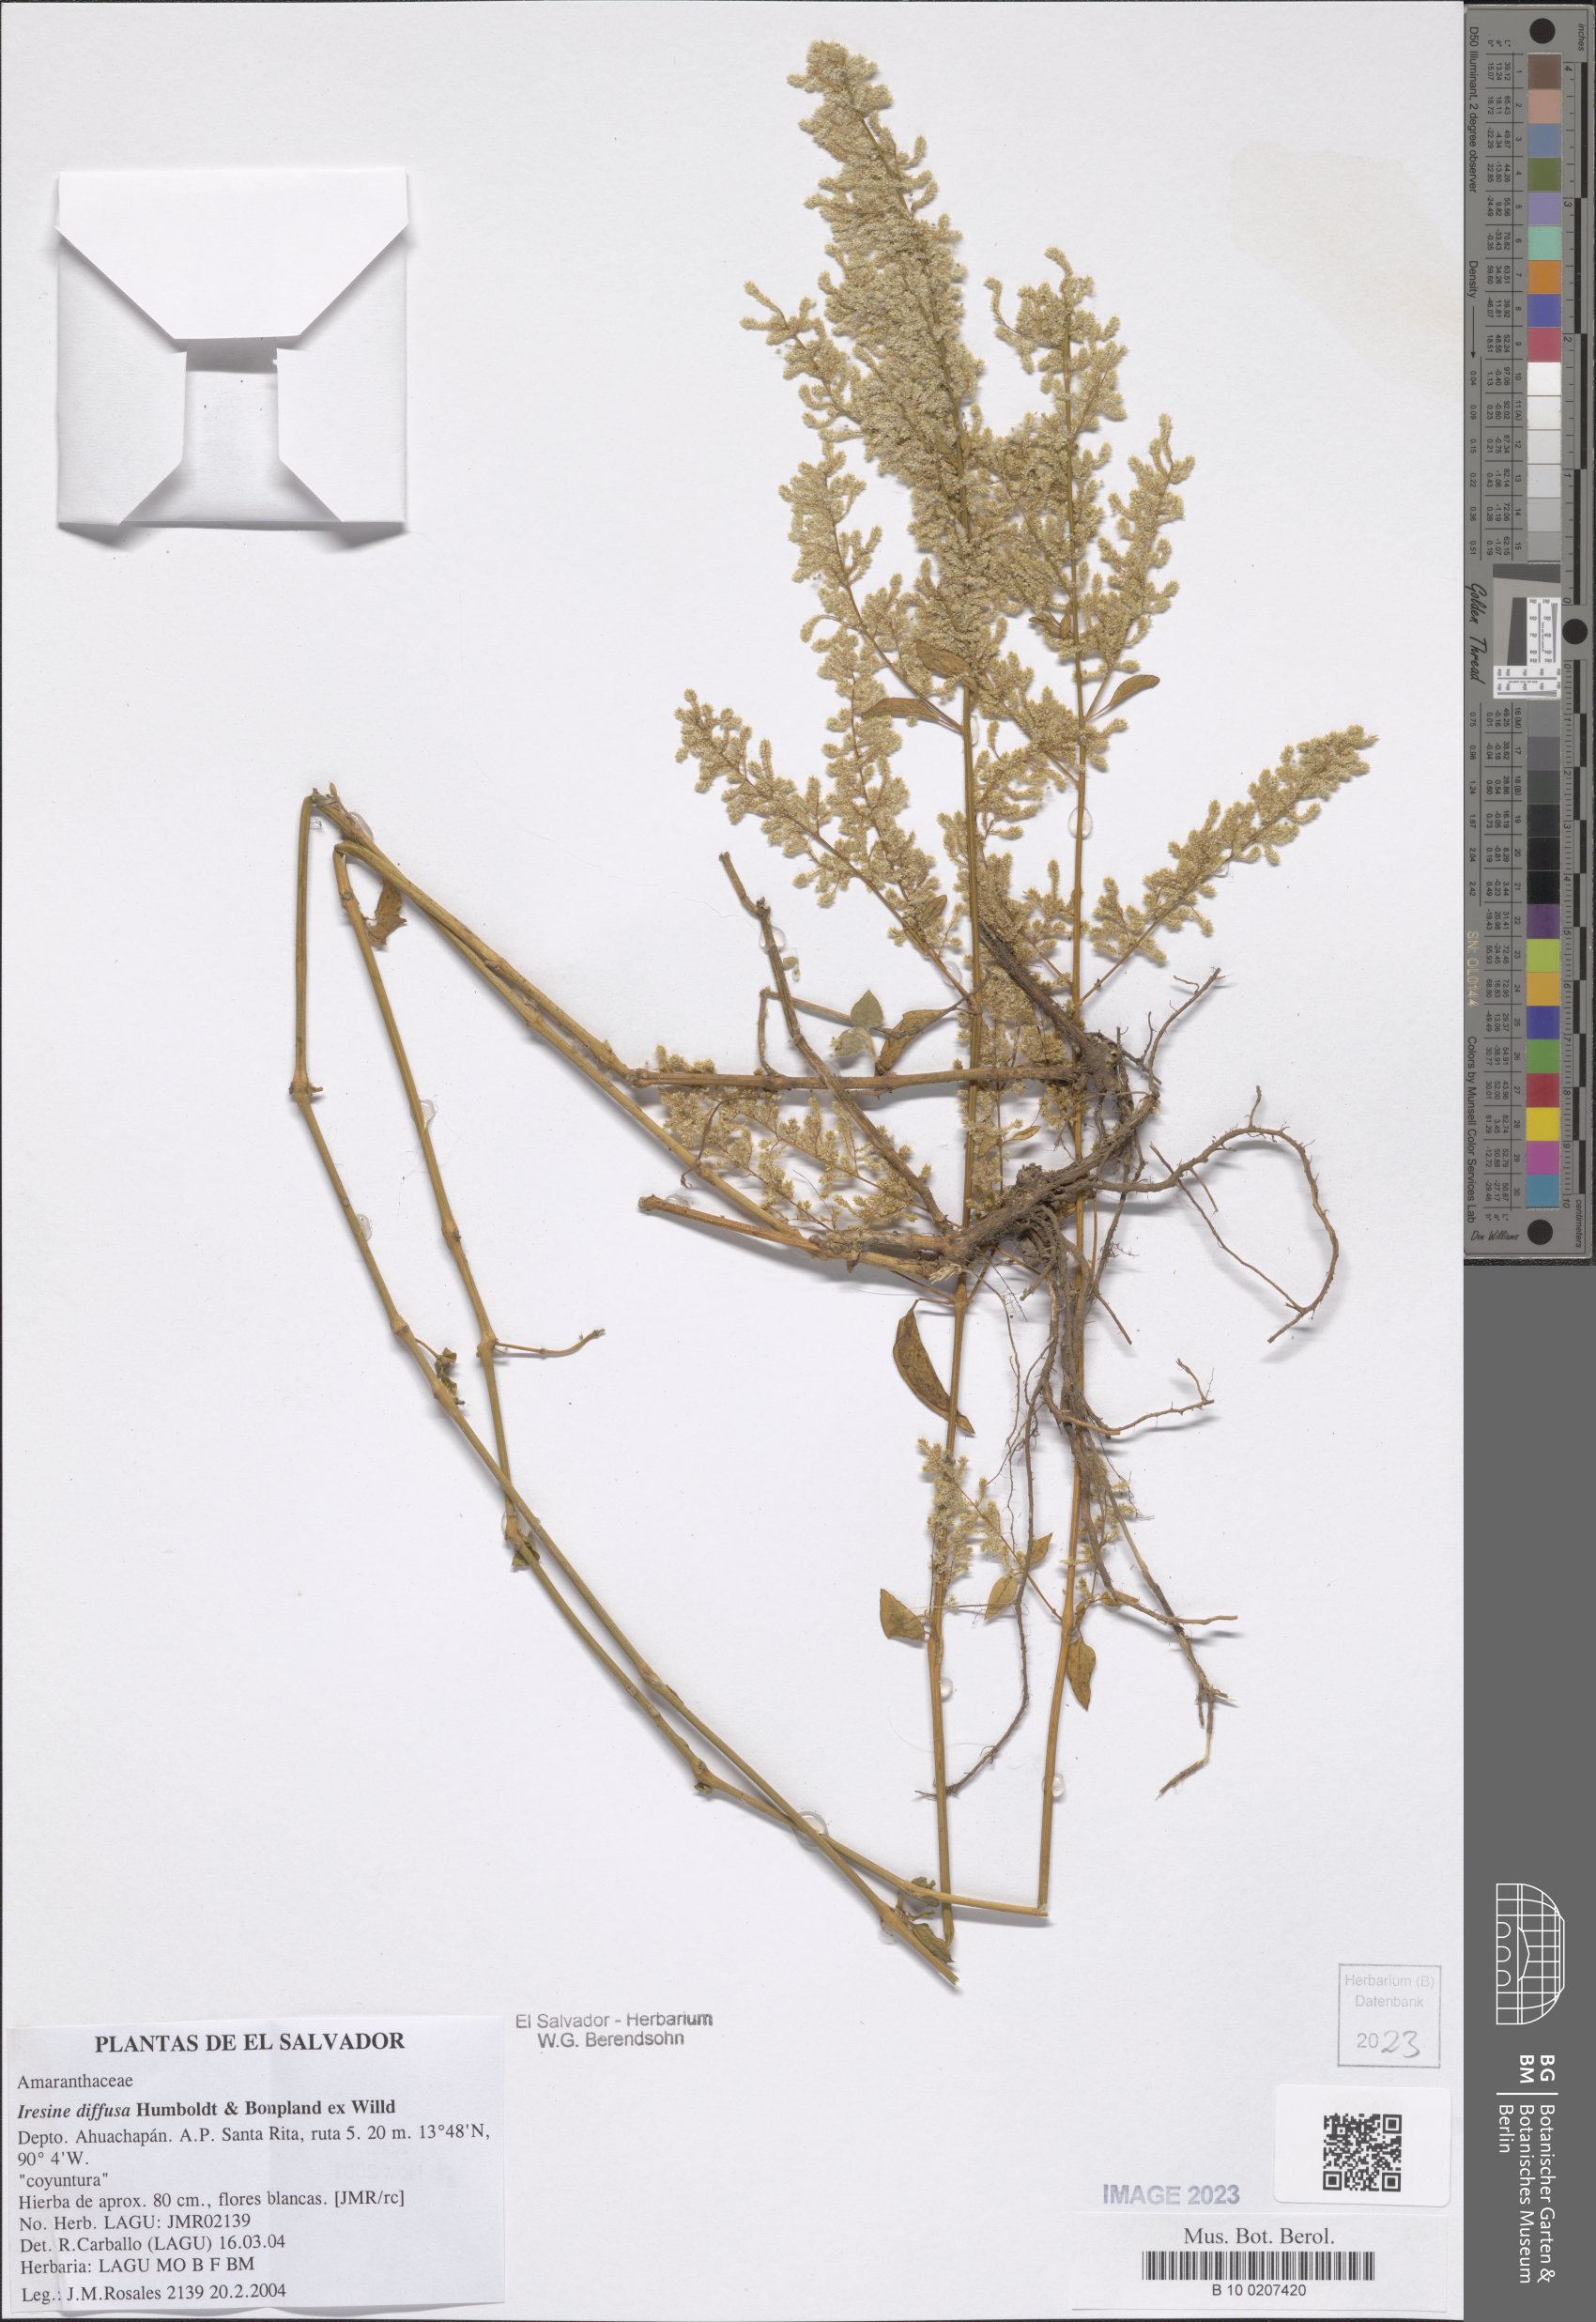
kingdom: Plantae
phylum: Tracheophyta
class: Magnoliopsida
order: Caryophyllales
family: Amaranthaceae
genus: Iresine
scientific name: Iresine diffusa
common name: Juba's-bush
